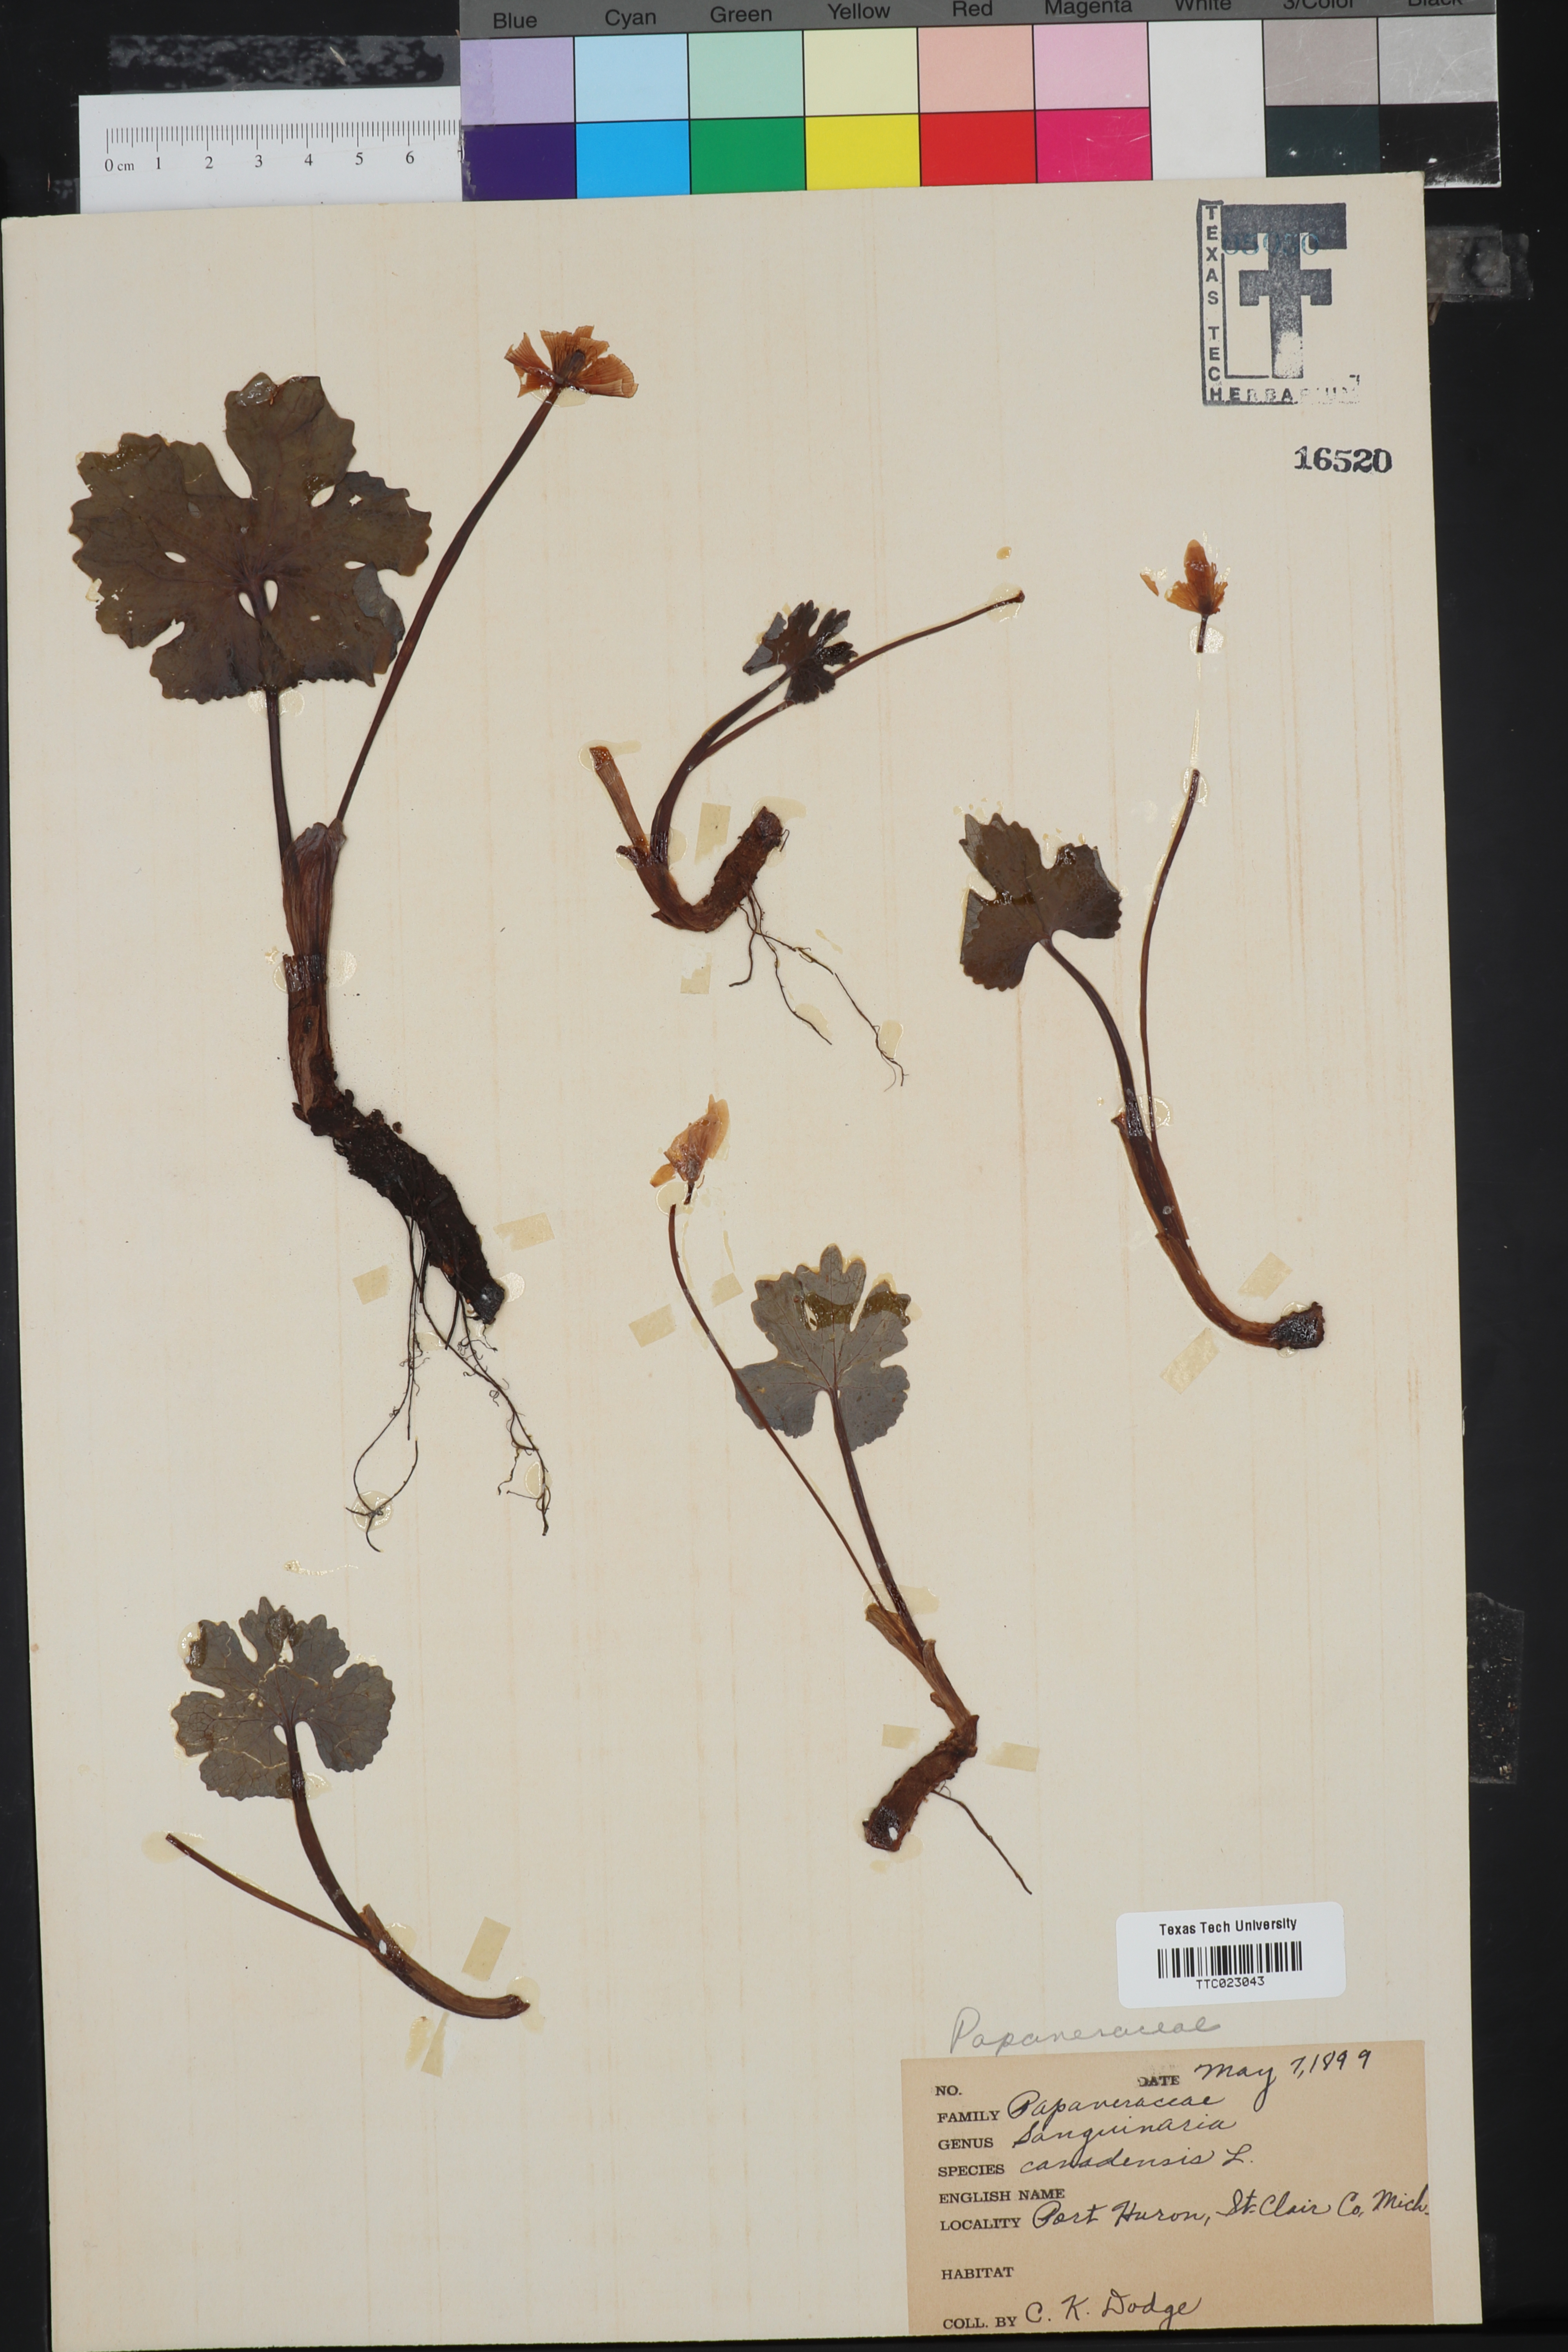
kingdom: Plantae
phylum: Tracheophyta
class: Magnoliopsida
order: Ranunculales
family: Papaveraceae
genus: Sanguinaria
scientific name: Sanguinaria canadensis
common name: Bloodroot
